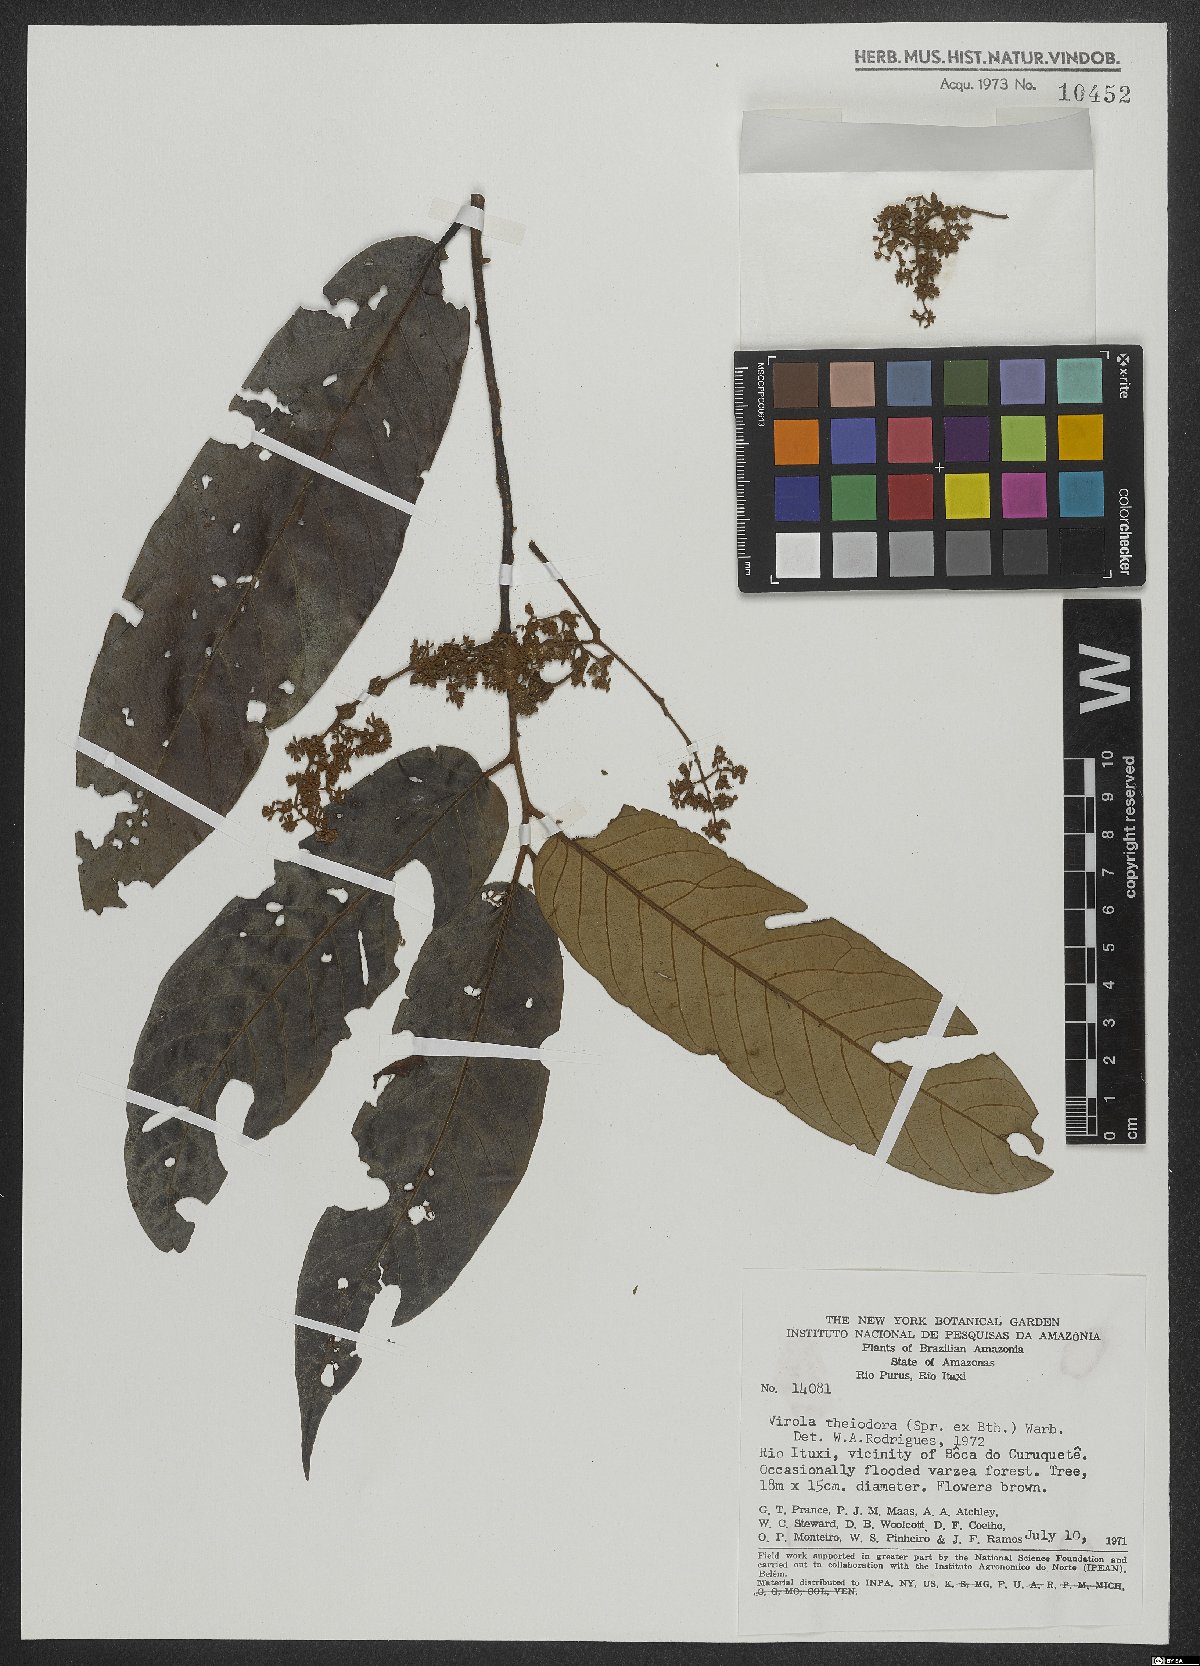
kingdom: Plantae
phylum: Tracheophyta
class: Magnoliopsida
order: Magnoliales
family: Myristicaceae
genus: Virola
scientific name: Virola theiodora
